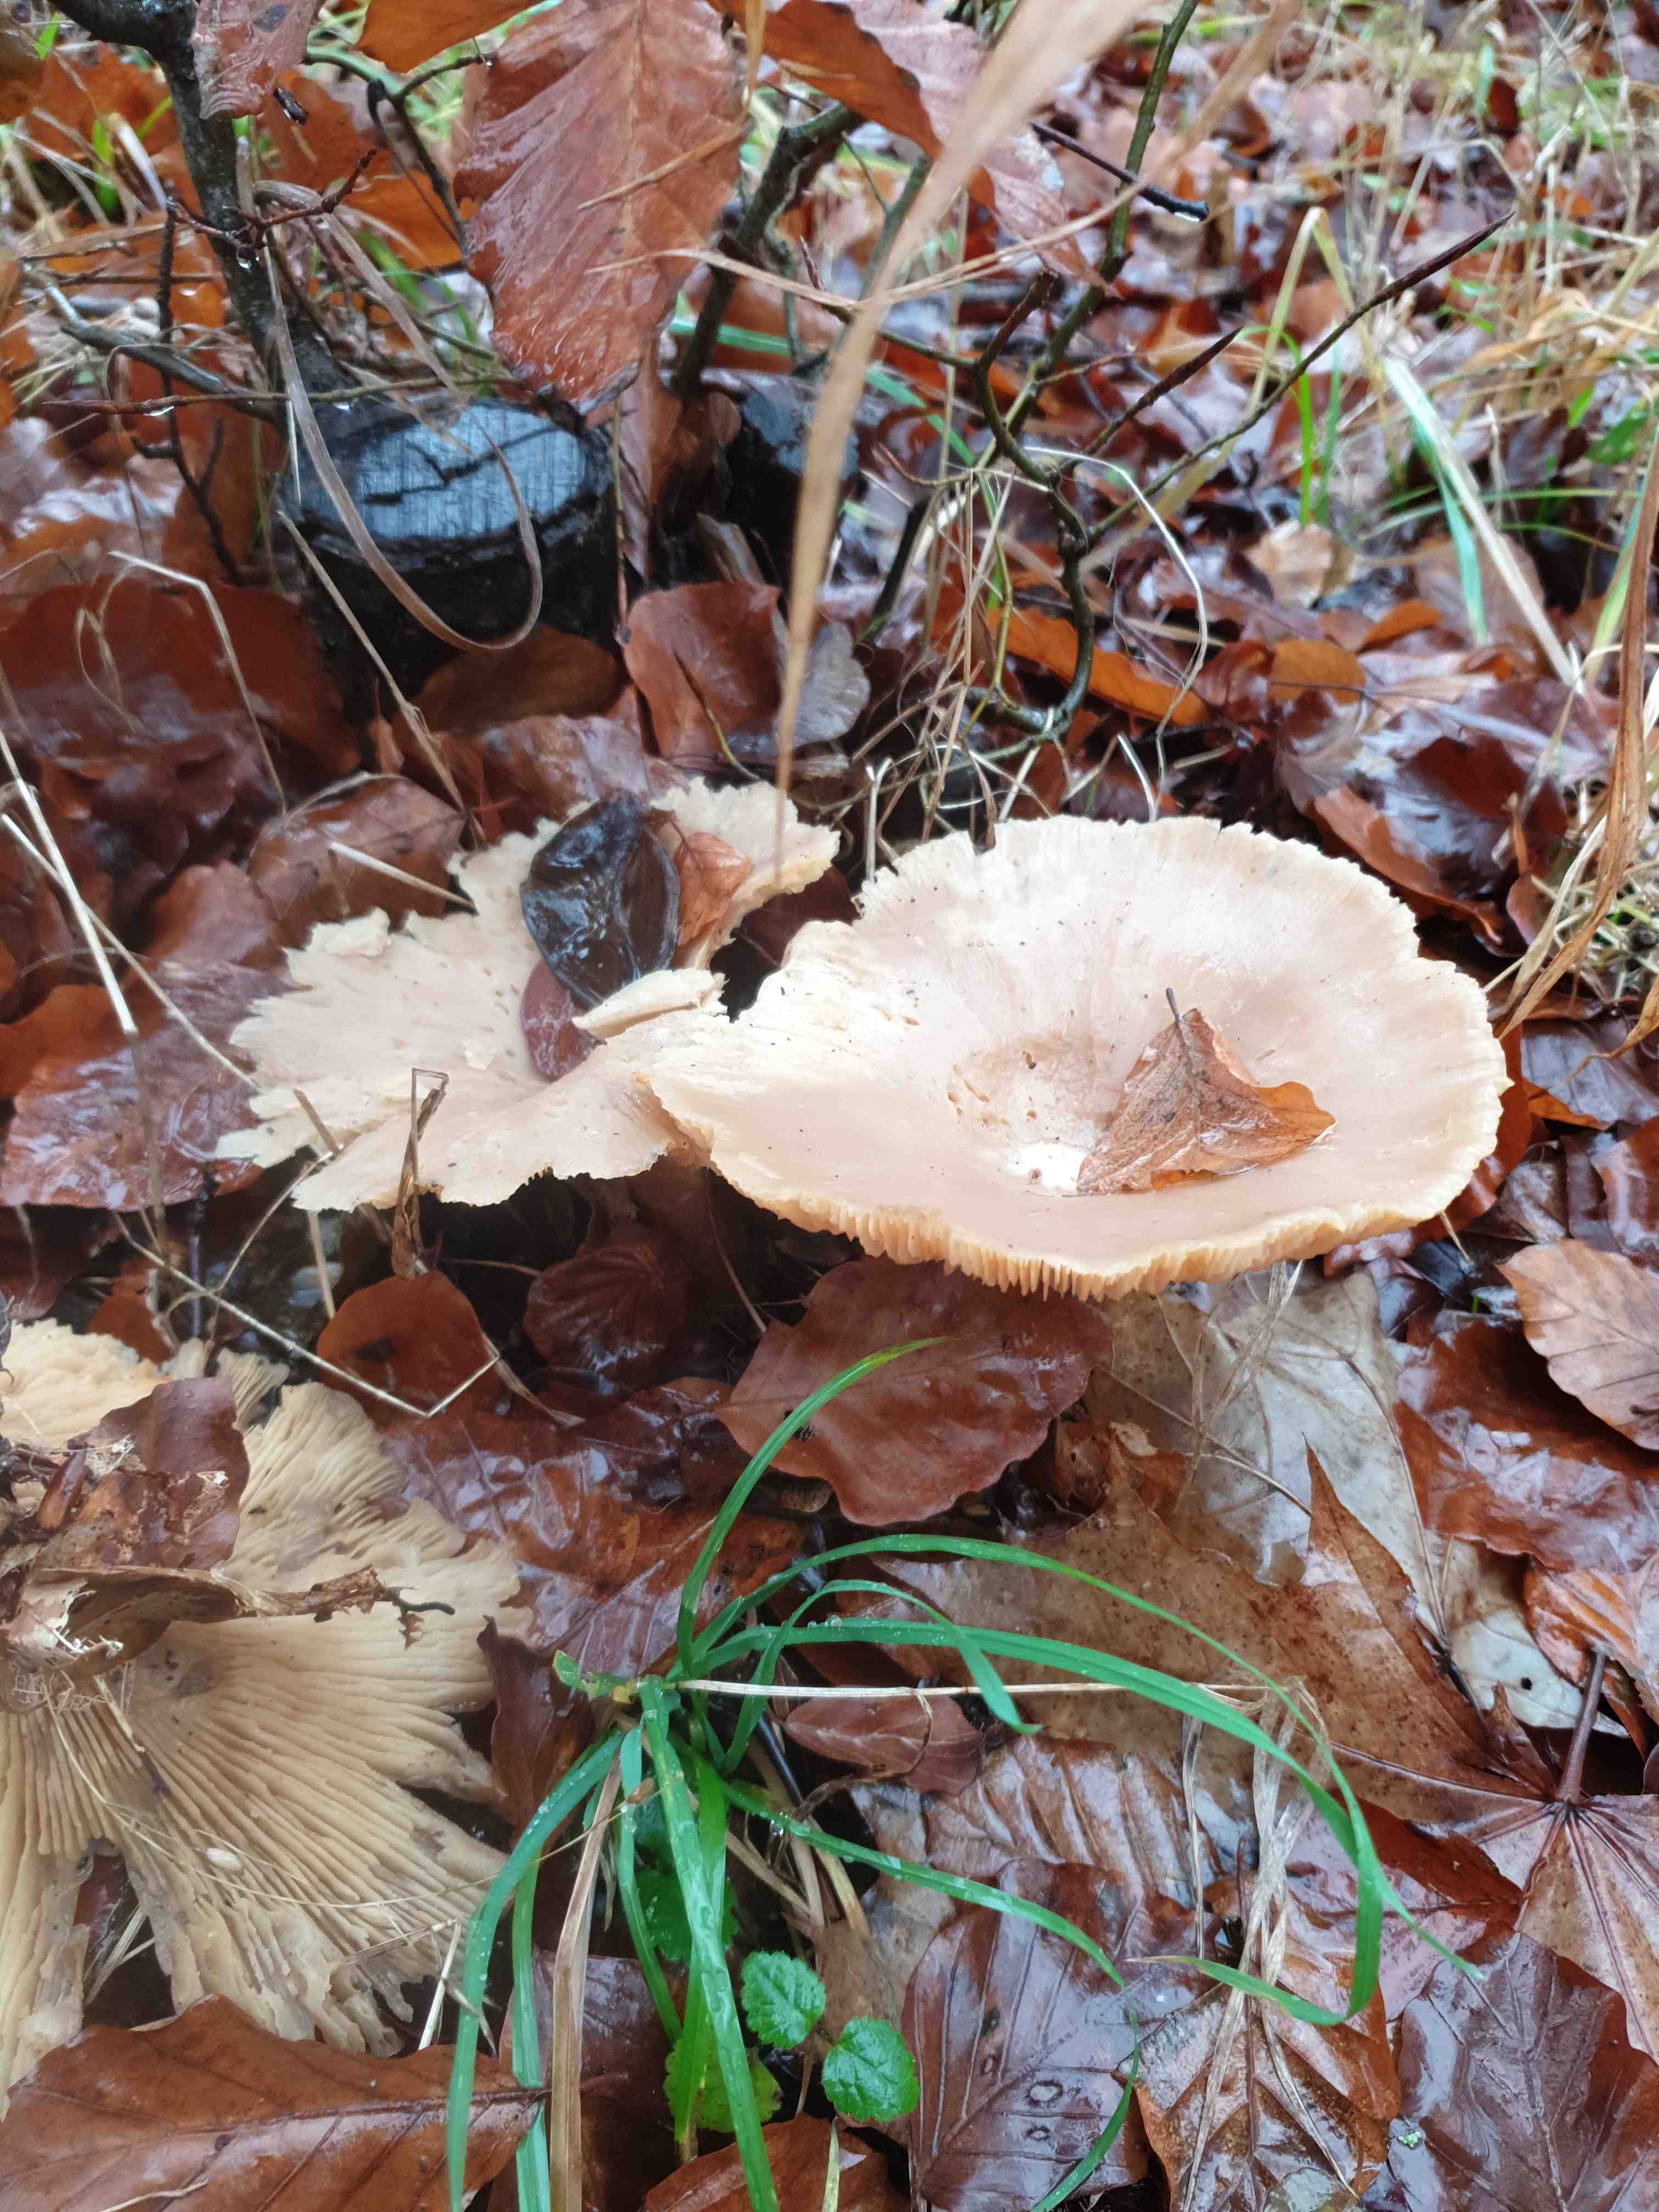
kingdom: Fungi
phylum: Basidiomycota
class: Agaricomycetes
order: Agaricales
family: Tricholomataceae
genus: Infundibulicybe
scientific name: Infundibulicybe geotropa
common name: stor tragthat
